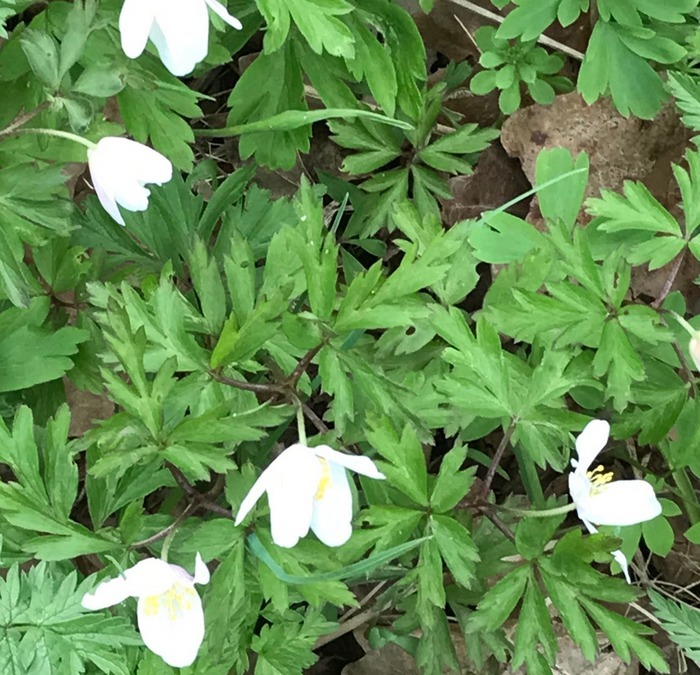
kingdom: Plantae
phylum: Tracheophyta
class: Magnoliopsida
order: Ranunculales
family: Ranunculaceae
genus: Anemone
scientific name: Anemone nemorosa
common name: Hvid anemone
